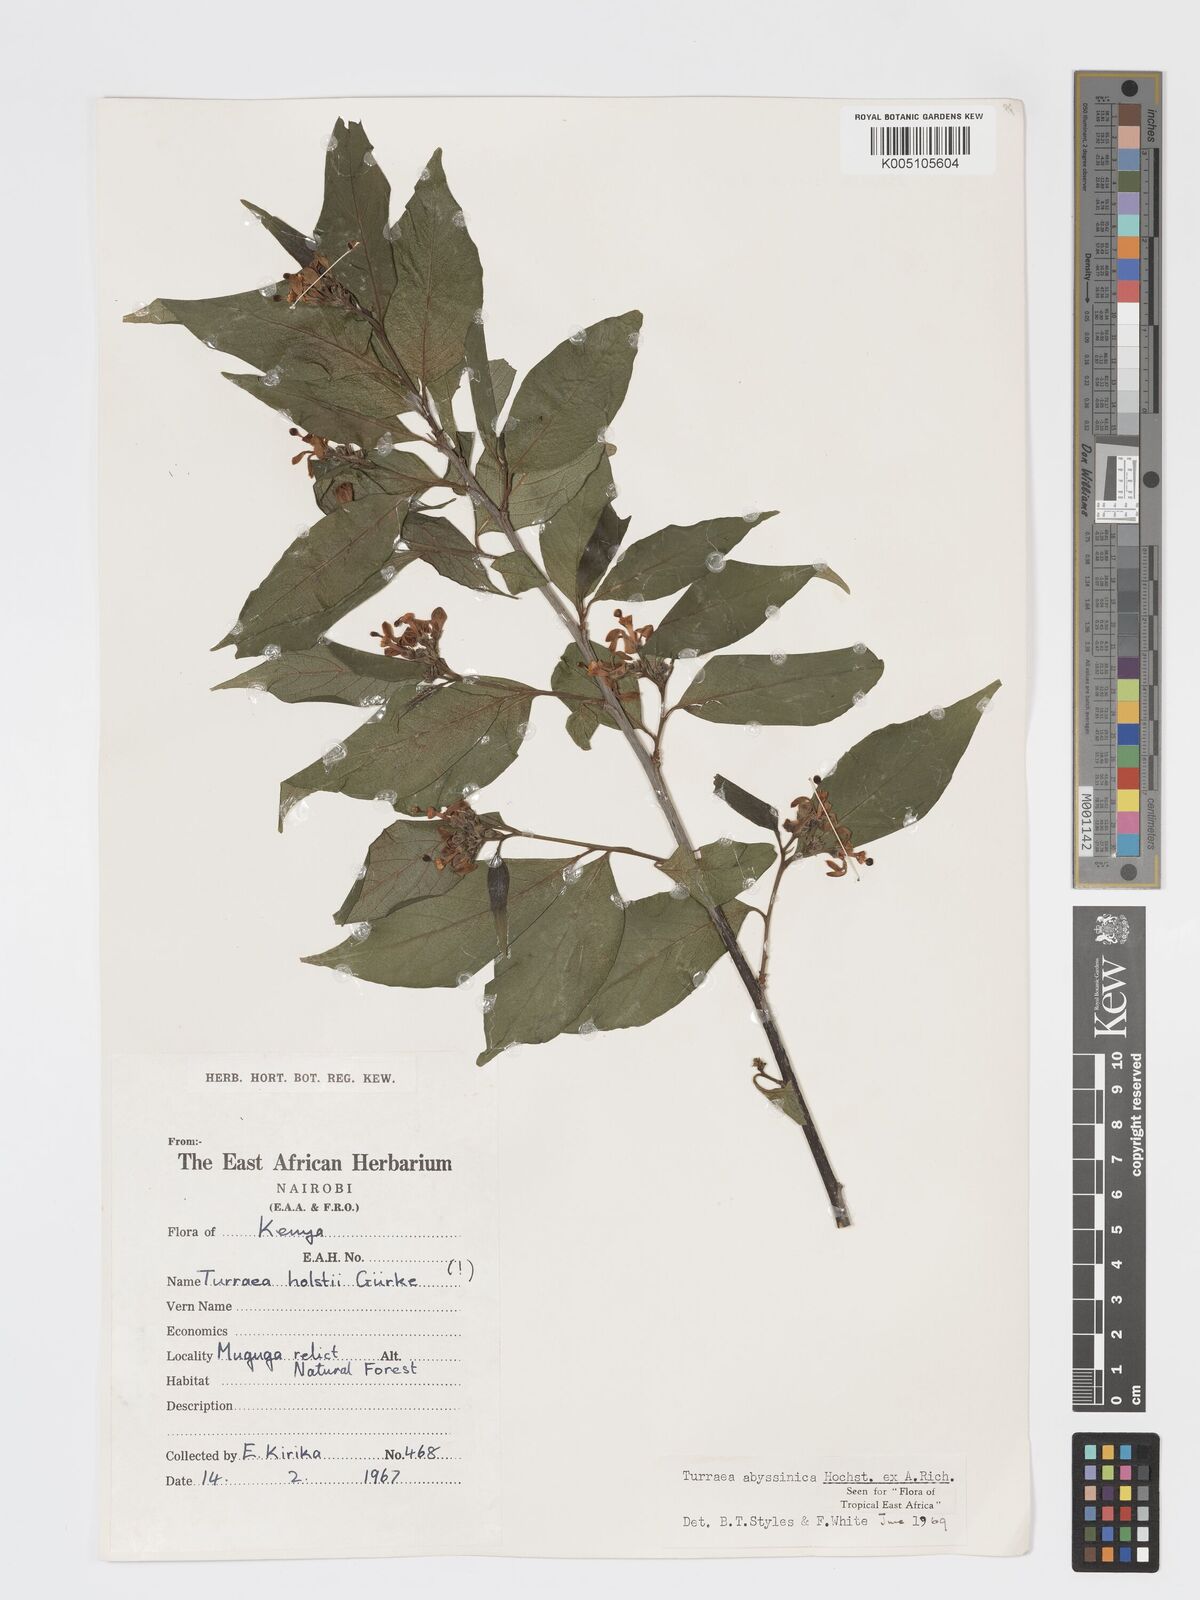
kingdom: Plantae
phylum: Tracheophyta
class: Magnoliopsida
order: Sapindales
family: Meliaceae
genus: Turraea
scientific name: Turraea abyssinica
